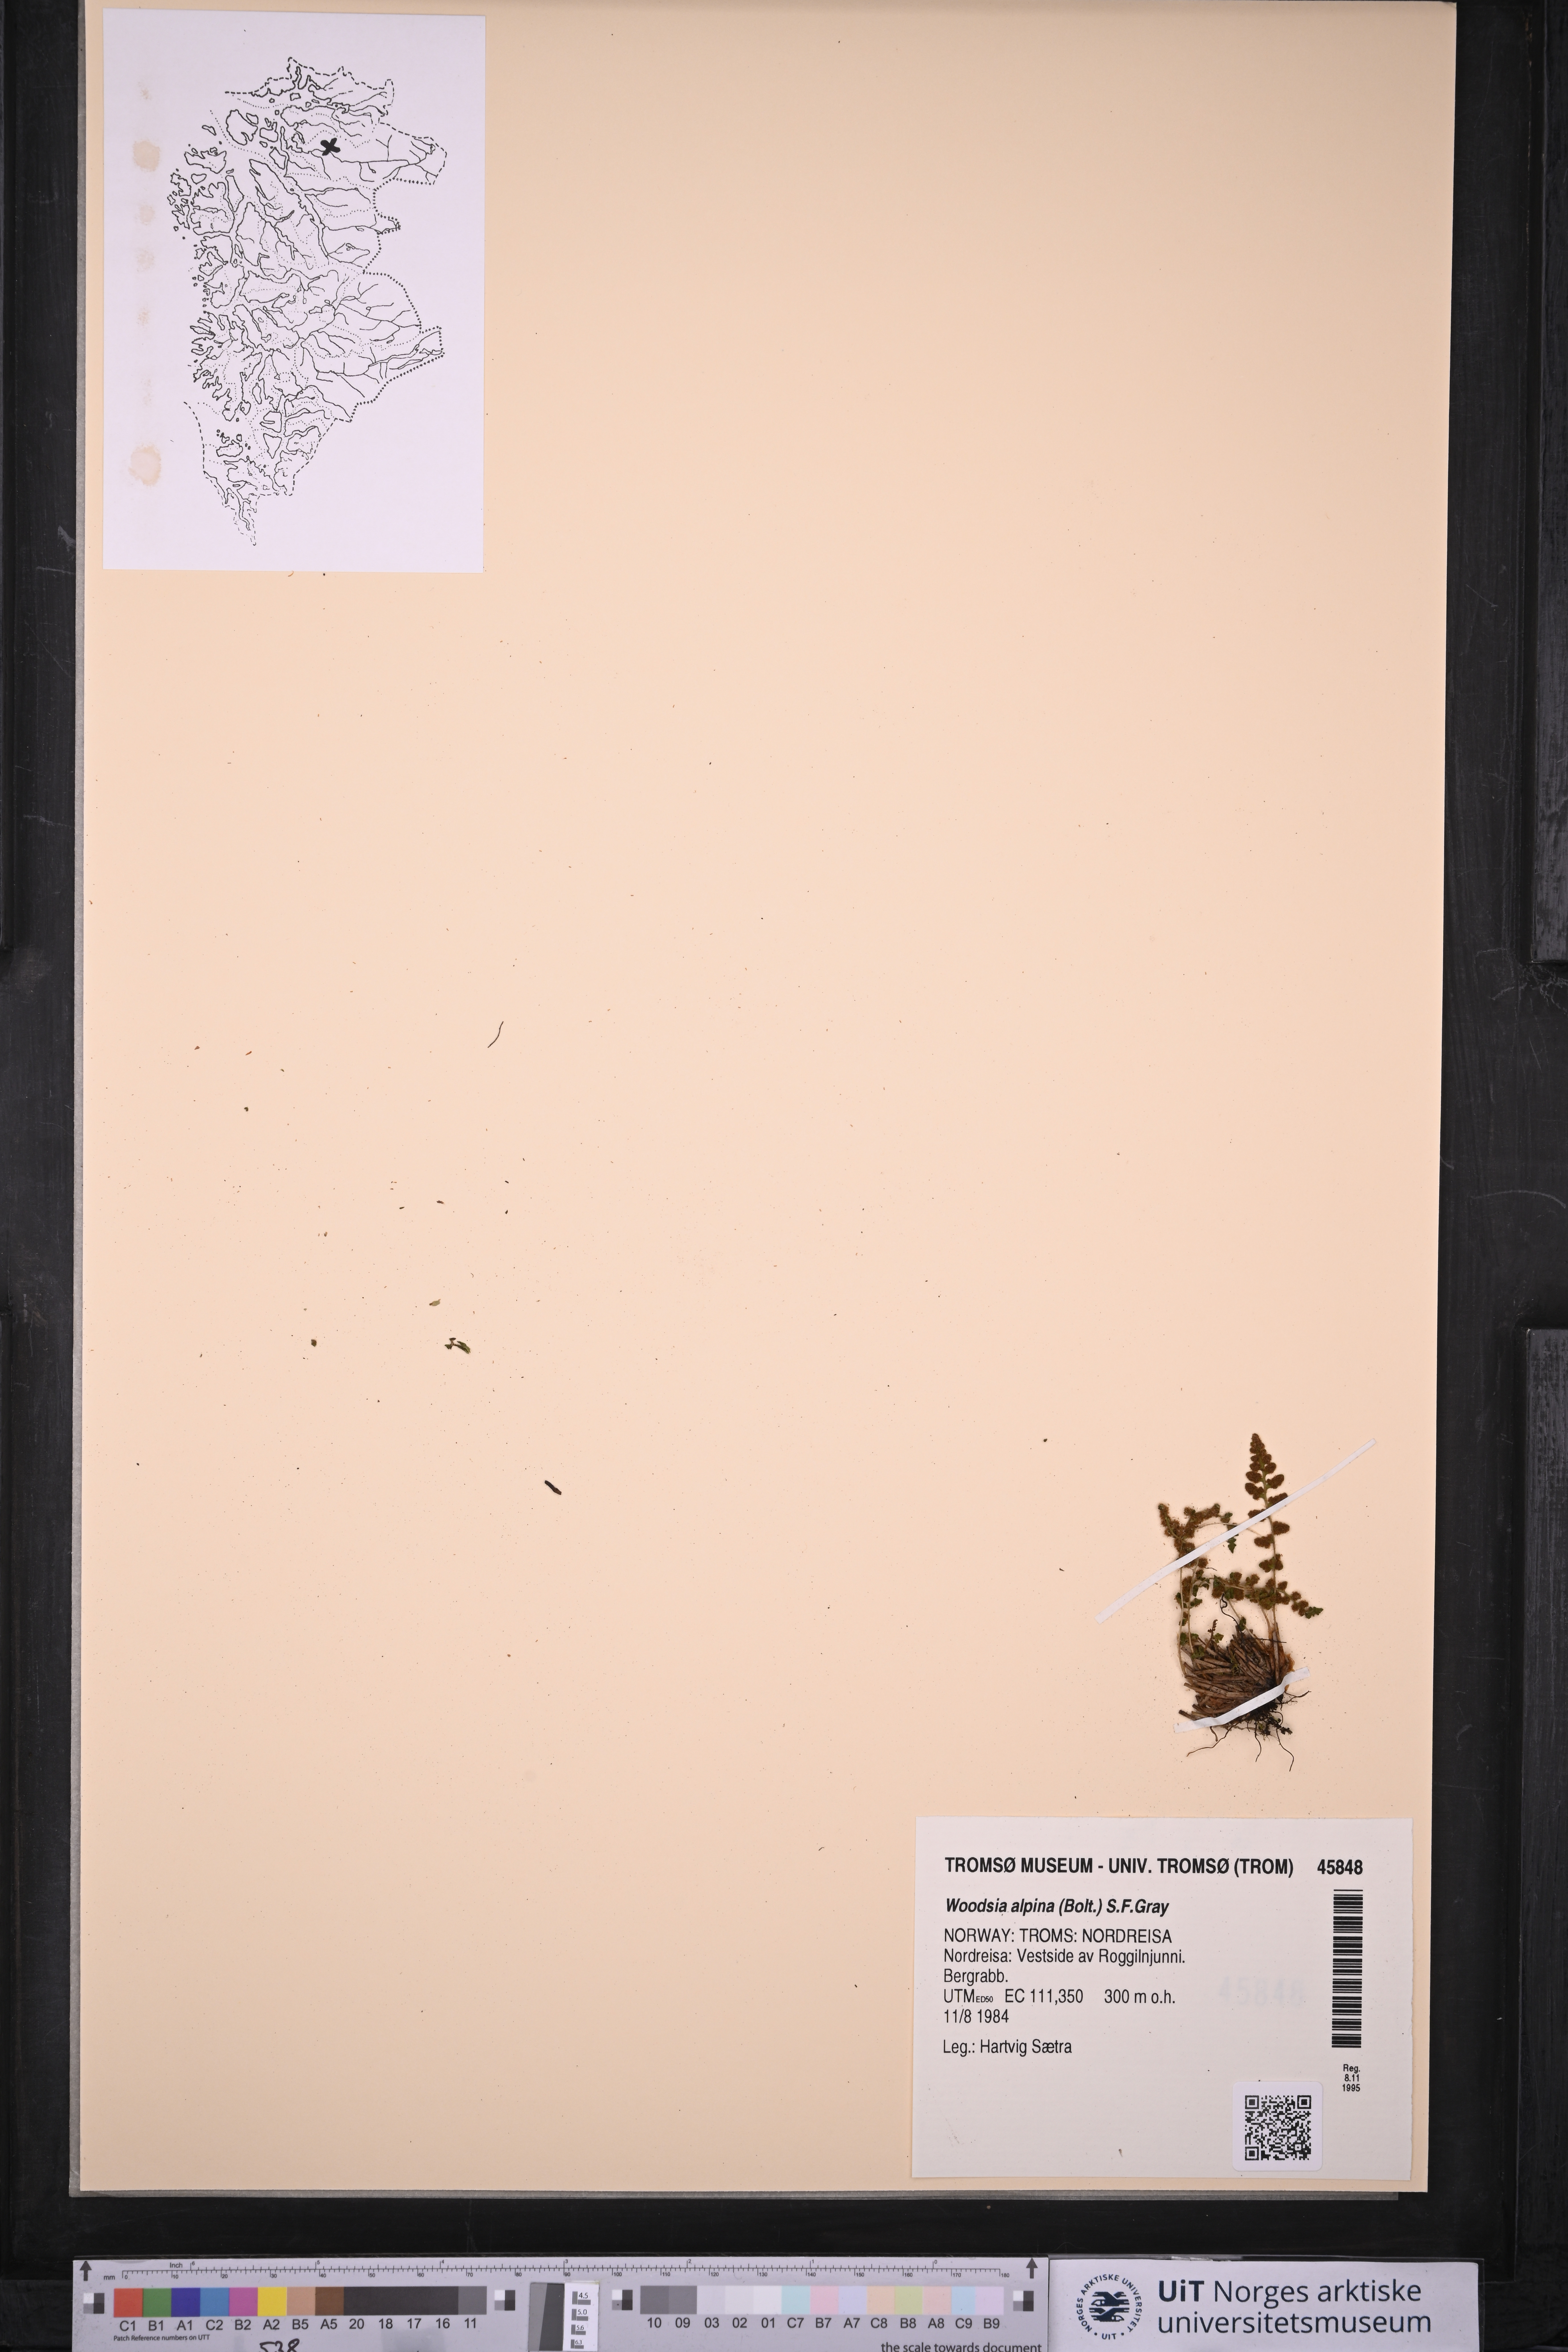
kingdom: Plantae
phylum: Tracheophyta
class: Polypodiopsida
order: Polypodiales
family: Woodsiaceae
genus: Woodsia
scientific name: Woodsia alpina
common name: Alpine woodsia
